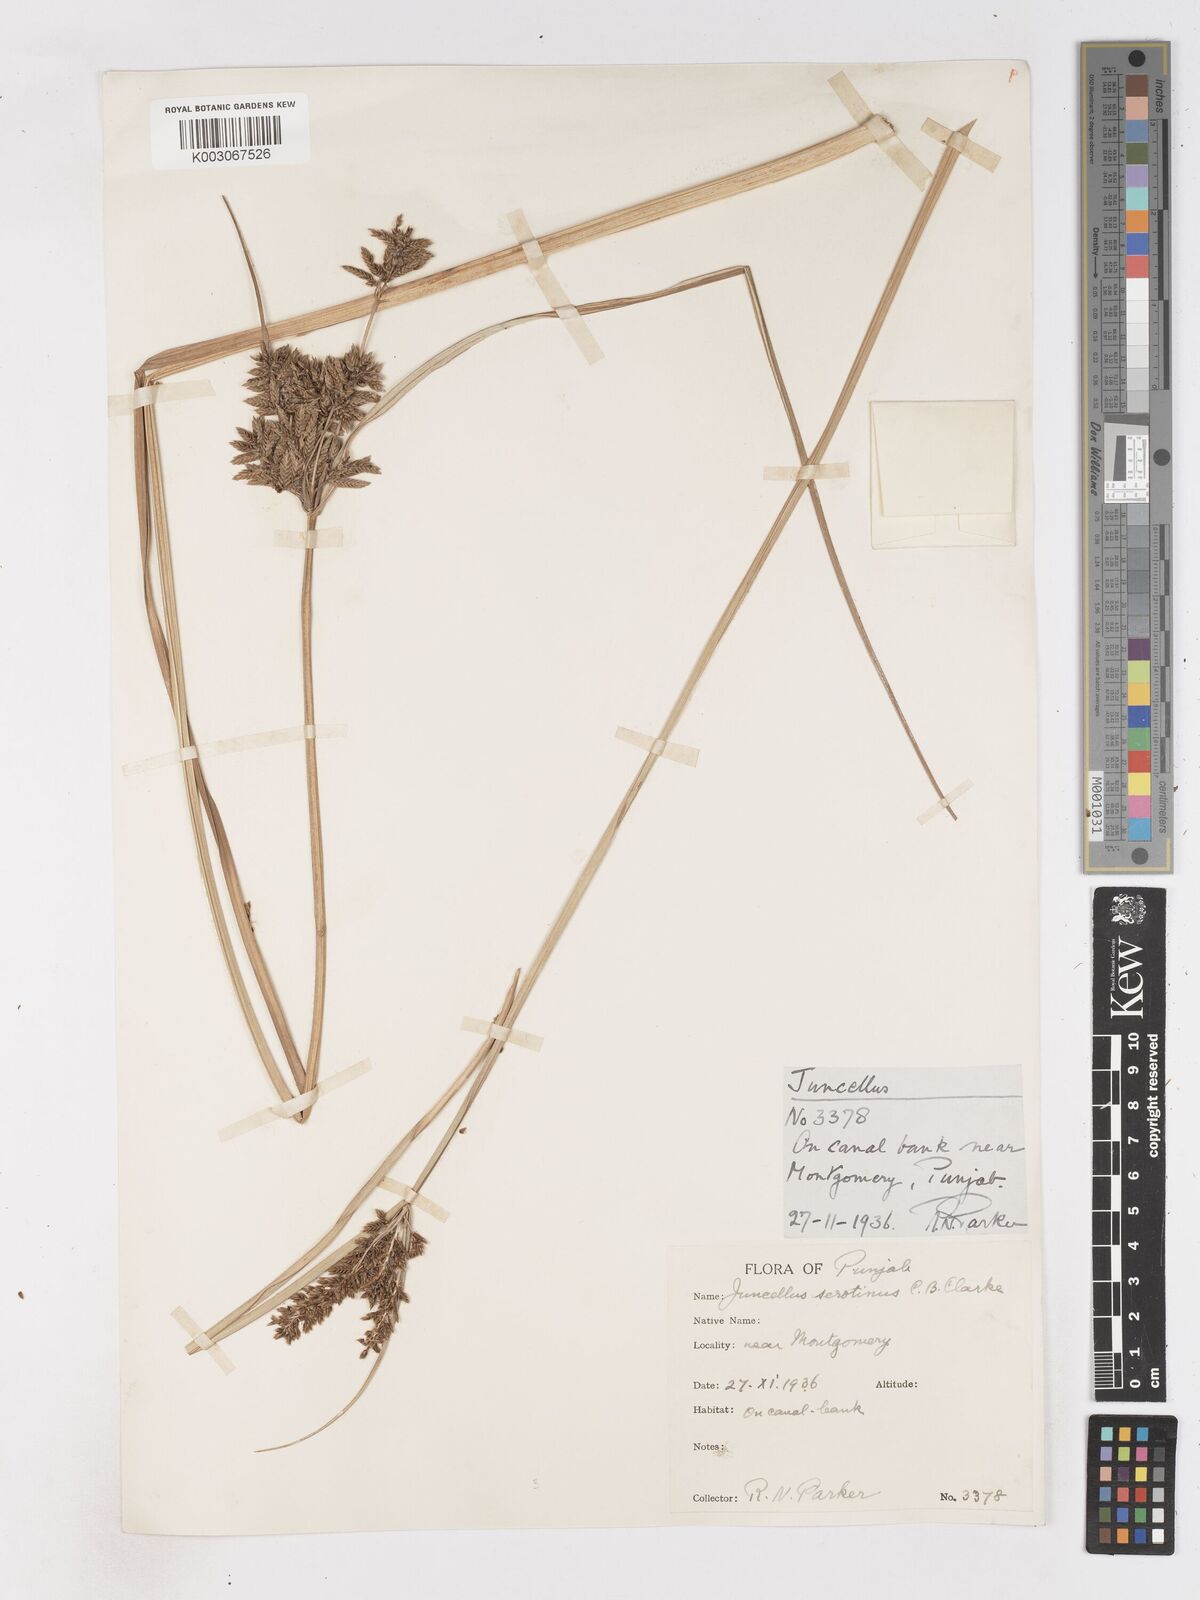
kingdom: Plantae
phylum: Tracheophyta
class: Liliopsida
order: Poales
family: Cyperaceae
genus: Cyperus
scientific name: Cyperus serotinus
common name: Tidalmarsh flatsedge
